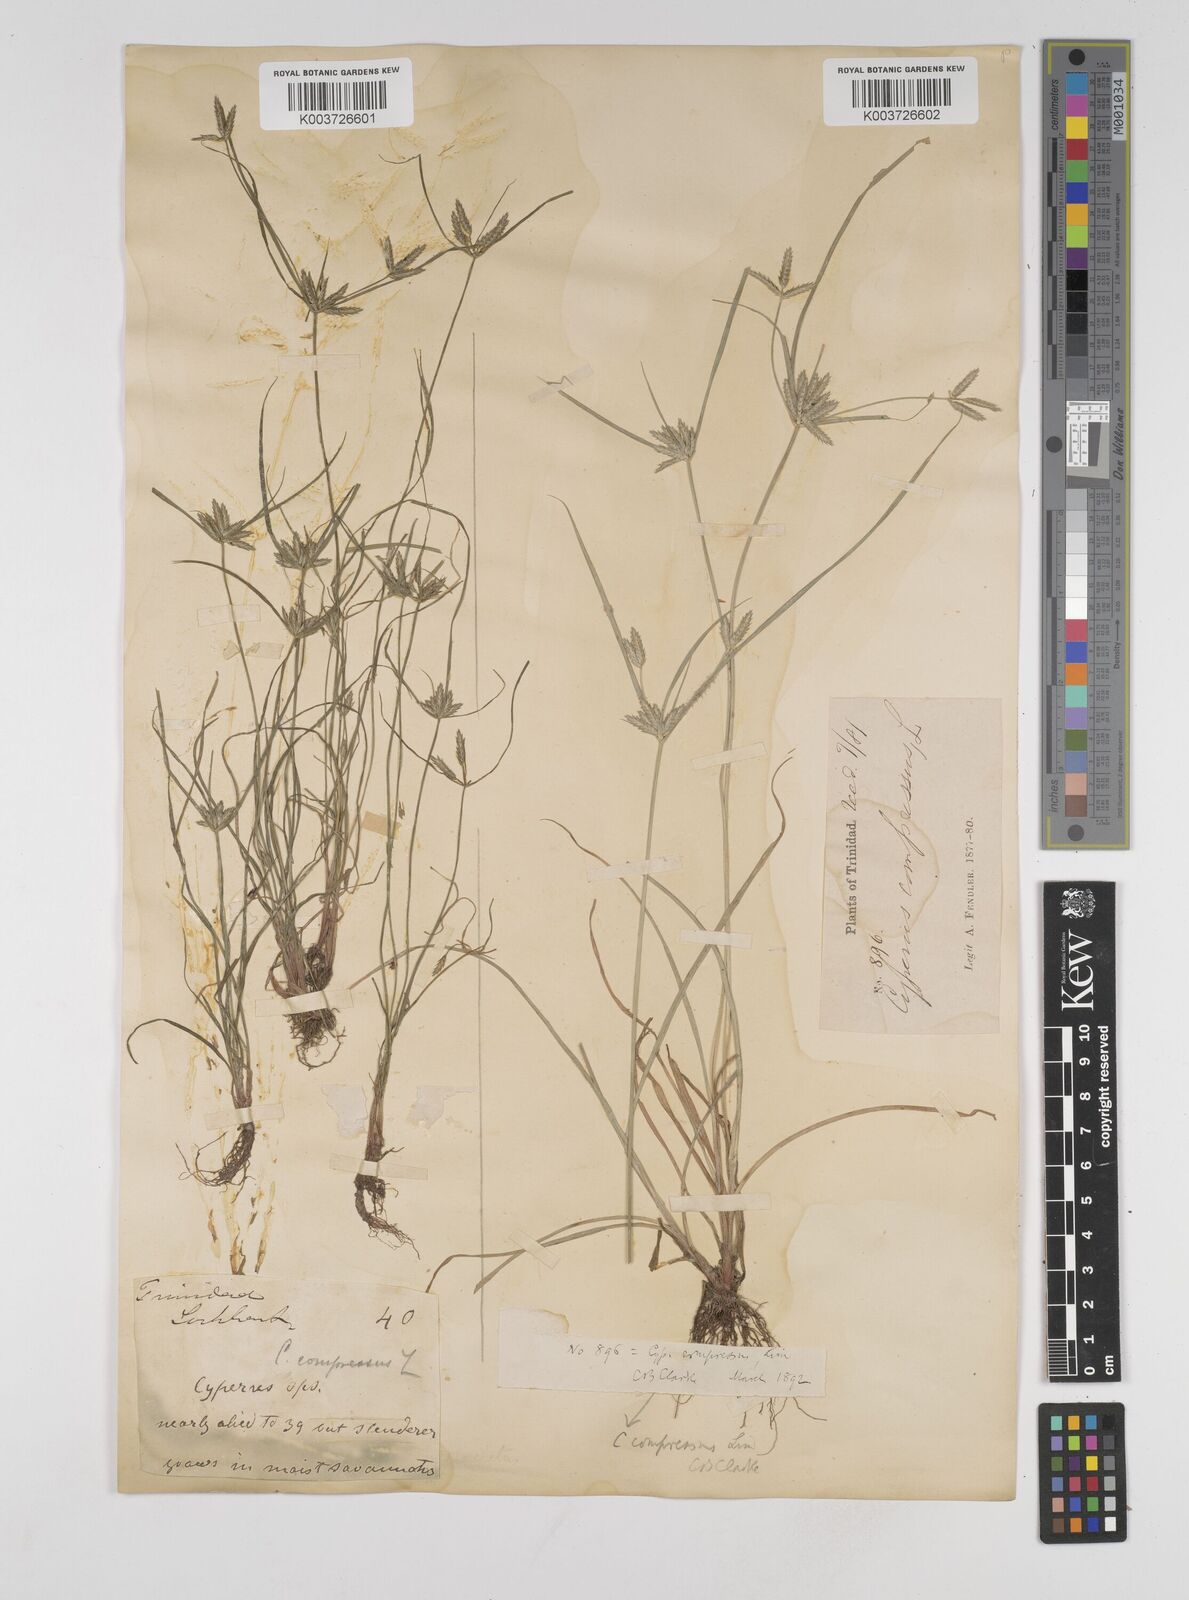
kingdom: Plantae
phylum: Tracheophyta
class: Liliopsida
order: Poales
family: Cyperaceae
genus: Cyperus
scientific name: Cyperus compressus
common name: Poorland flatsedge
